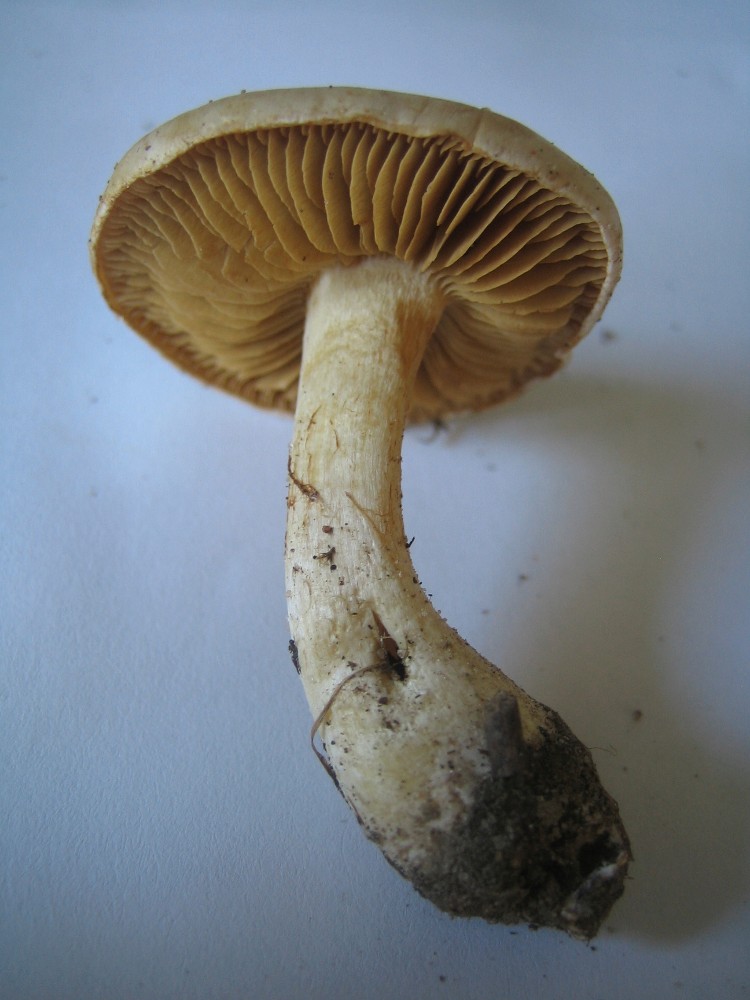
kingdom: Fungi
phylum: Basidiomycota
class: Agaricomycetes
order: Agaricales
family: Cortinariaceae
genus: Cortinarius
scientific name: Cortinarius
